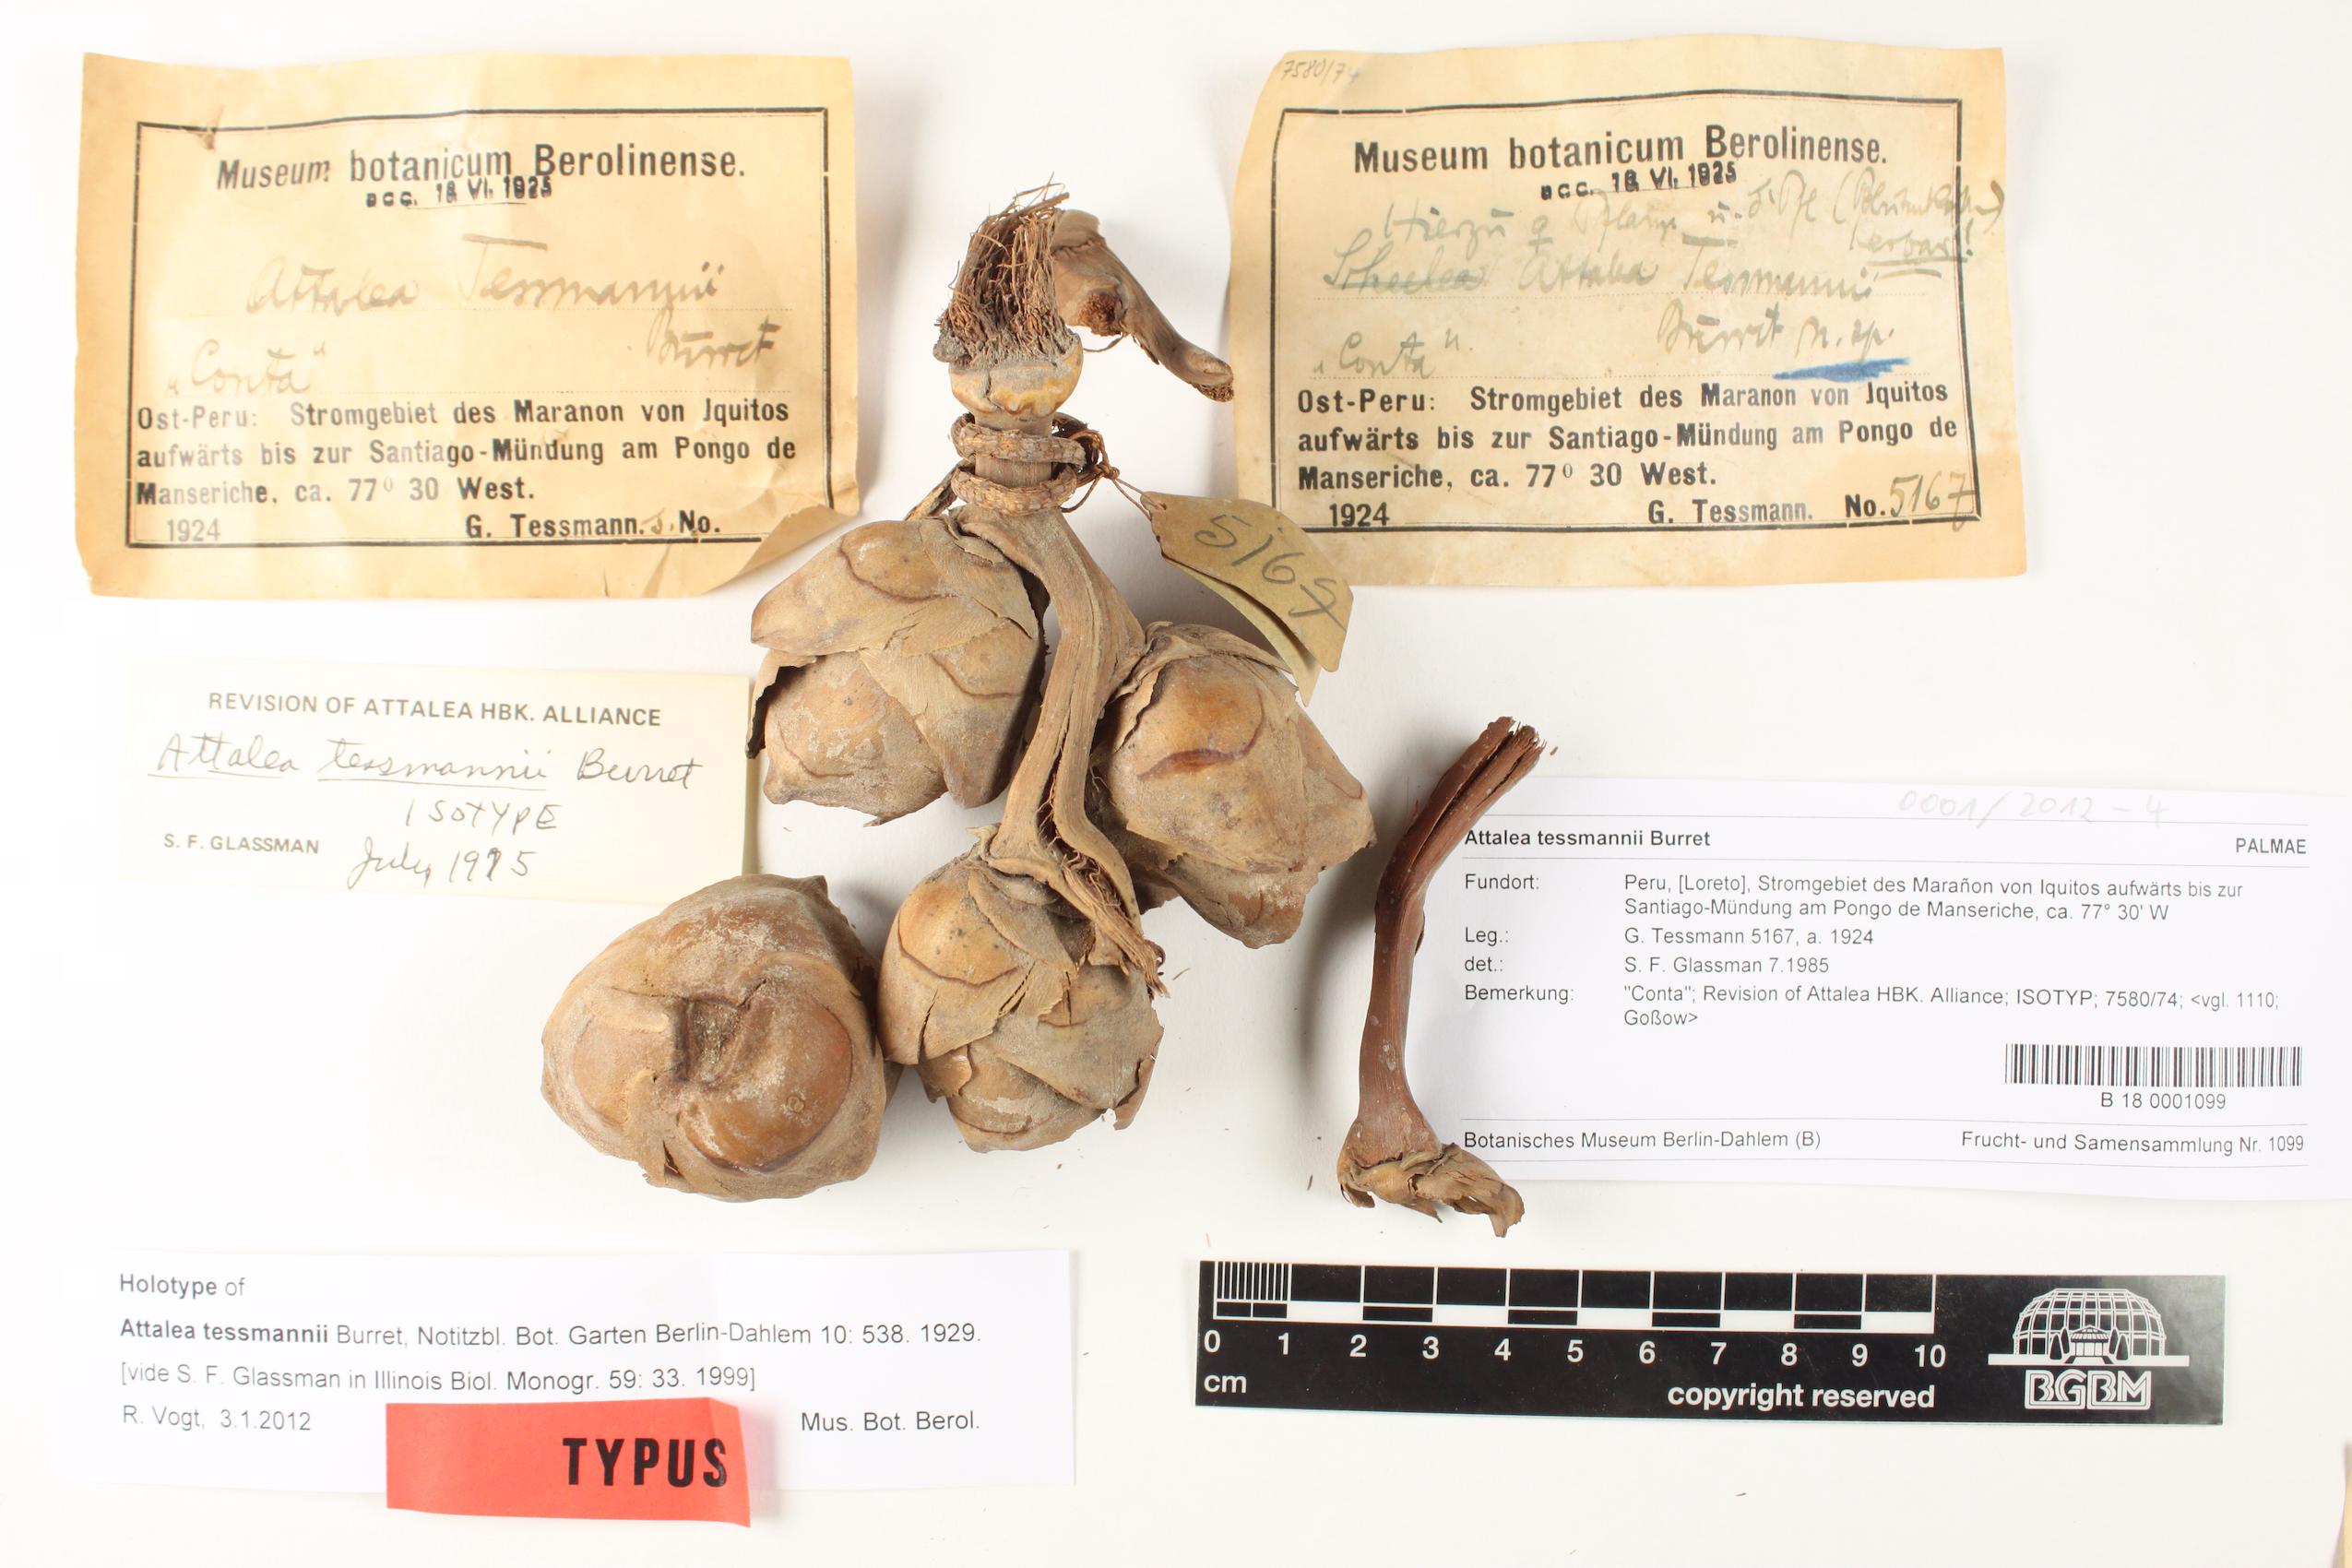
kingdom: Plantae
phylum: Tracheophyta
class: Liliopsida
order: Arecales
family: Arecaceae
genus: Attalea
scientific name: Attalea tessmannii
